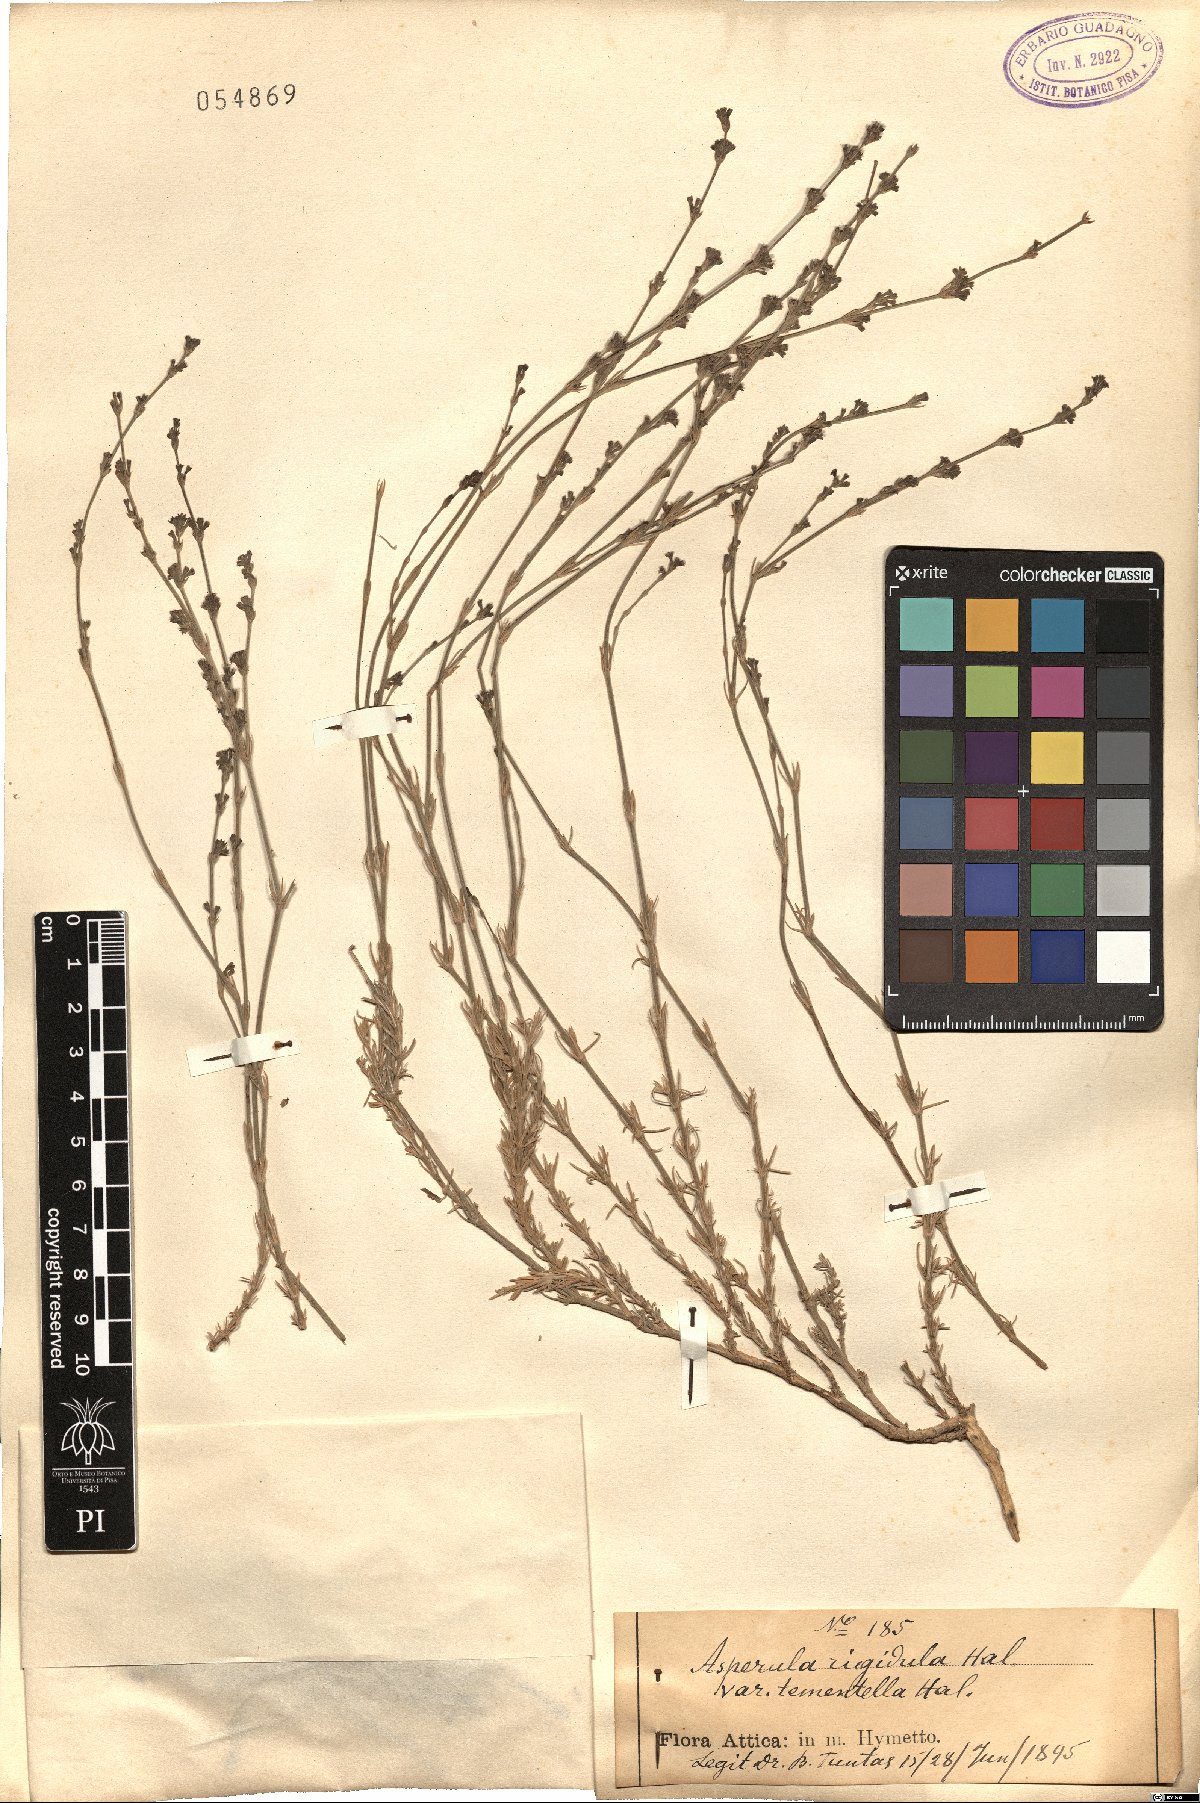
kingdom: Plantae
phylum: Tracheophyta
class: Magnoliopsida
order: Gentianales
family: Rubiaceae
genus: Cynanchica
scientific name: Cynanchica rigidula
